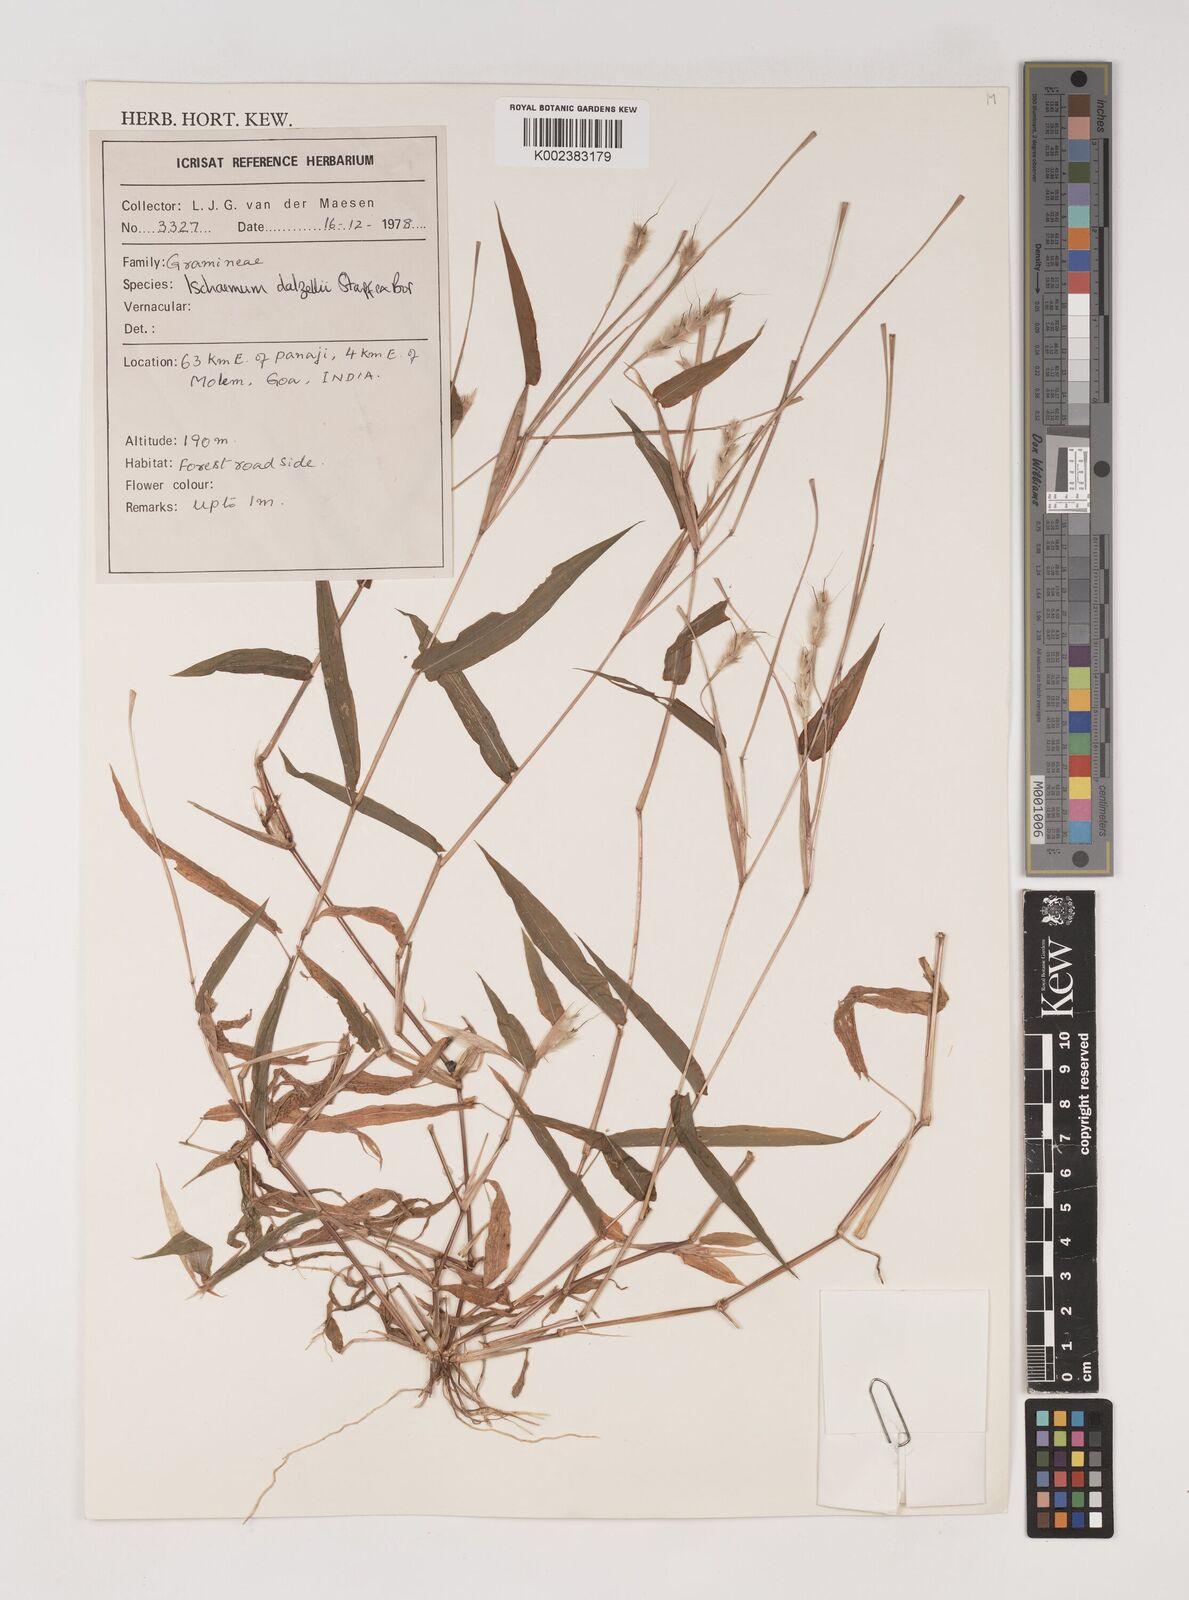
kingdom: Plantae
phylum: Tracheophyta
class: Liliopsida
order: Poales
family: Poaceae
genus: Ischaemum
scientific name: Ischaemum dalzellii
